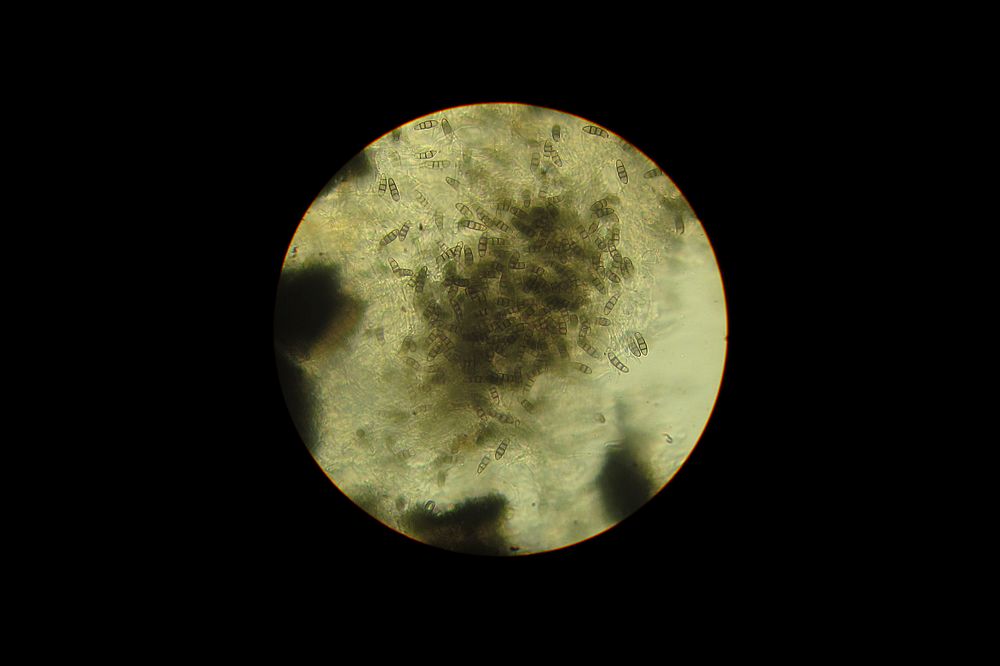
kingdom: Fungi
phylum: Ascomycota
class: Dothideomycetes
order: Pleosporales
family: Melanommataceae
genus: Melanomma
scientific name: Melanomma pulvis-pyrius
